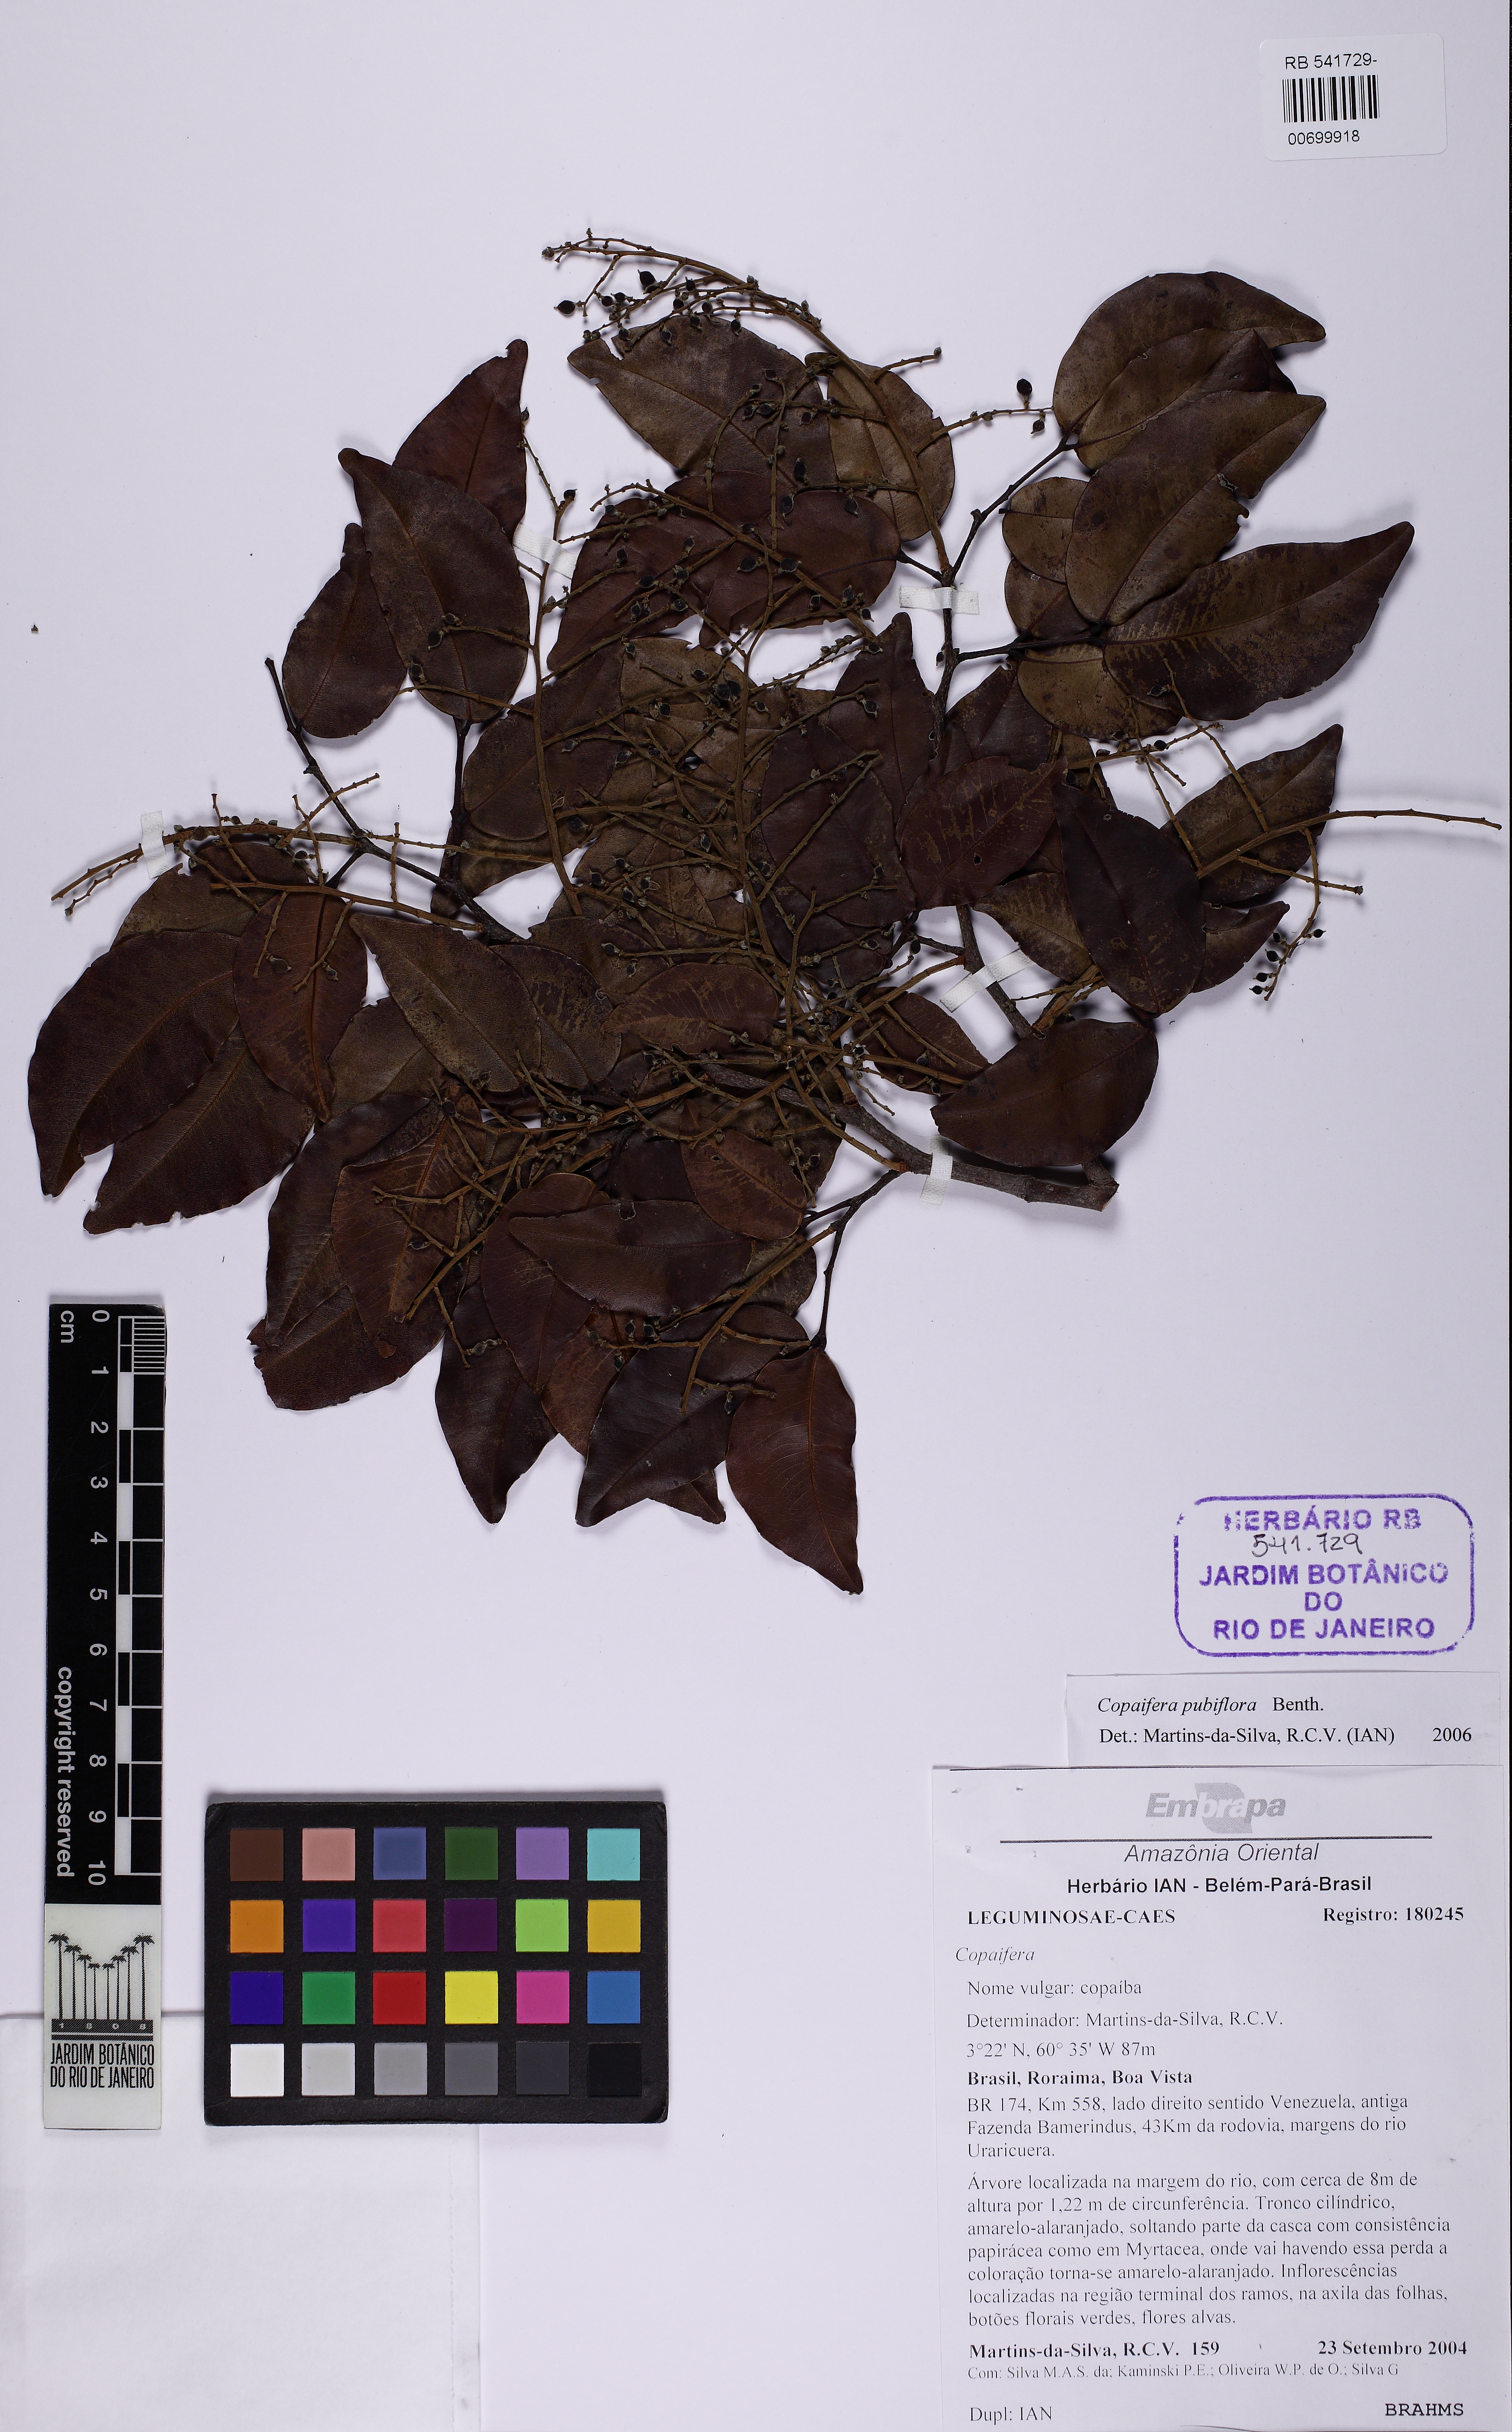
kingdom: Plantae
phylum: Tracheophyta
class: Magnoliopsida
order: Fabales
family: Fabaceae
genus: Copaifera
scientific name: Copaifera pubiflora
